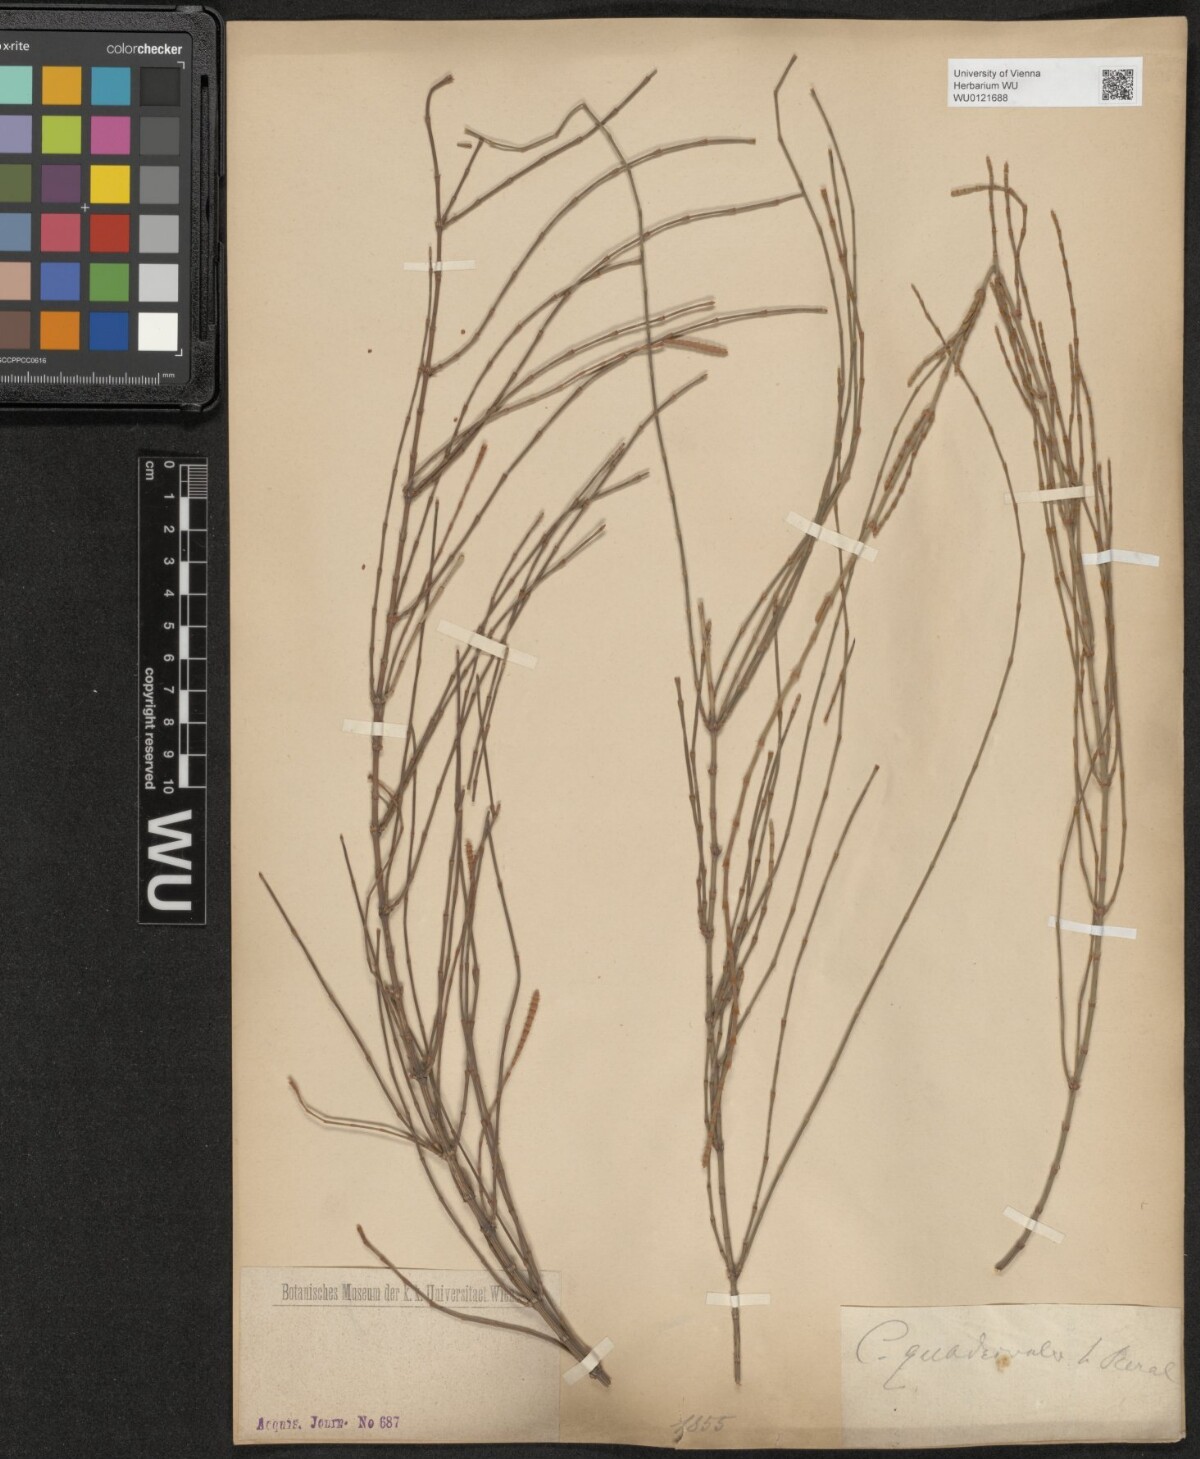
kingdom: Plantae
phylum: Tracheophyta
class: Magnoliopsida
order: Fagales
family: Casuarinaceae
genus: Allocasuarina
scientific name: Allocasuarina verticillata
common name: Drooping she-oak
